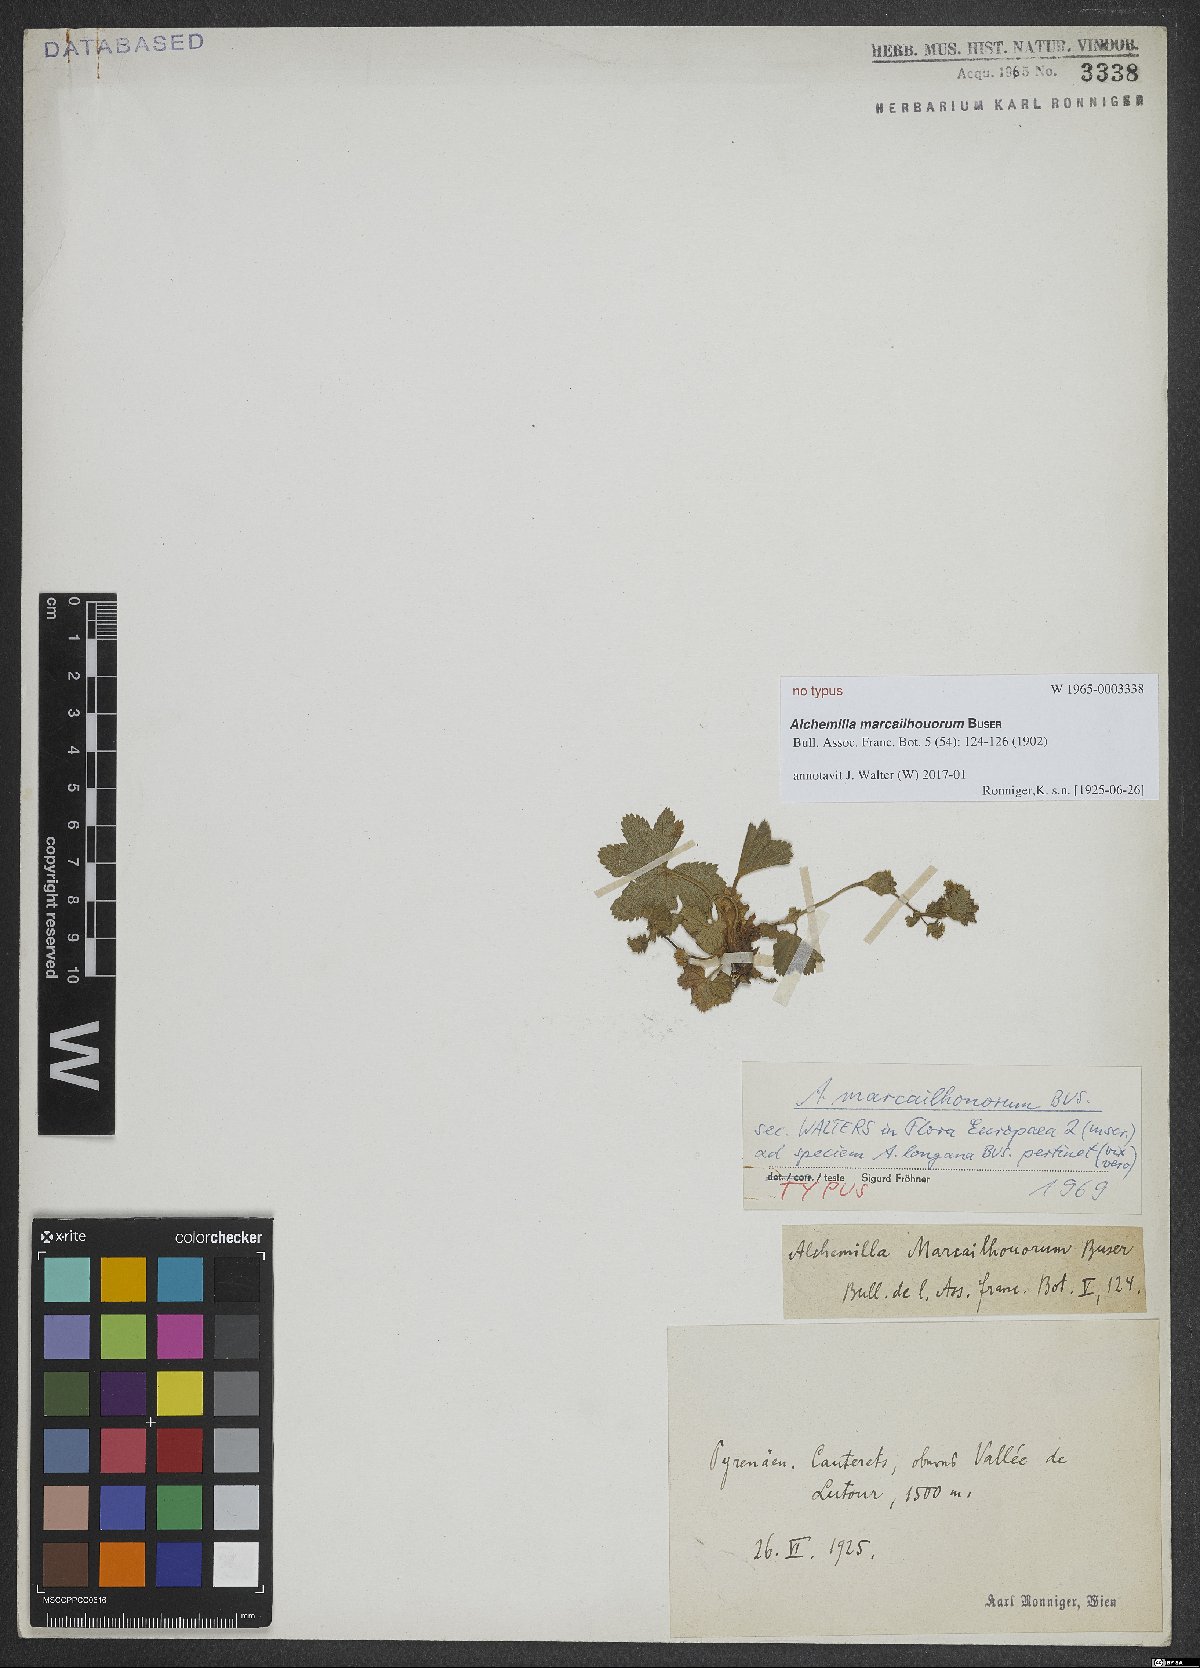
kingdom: Plantae
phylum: Tracheophyta
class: Magnoliopsida
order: Rosales
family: Rosaceae
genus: Alchemilla
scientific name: Alchemilla marcailhouorum
